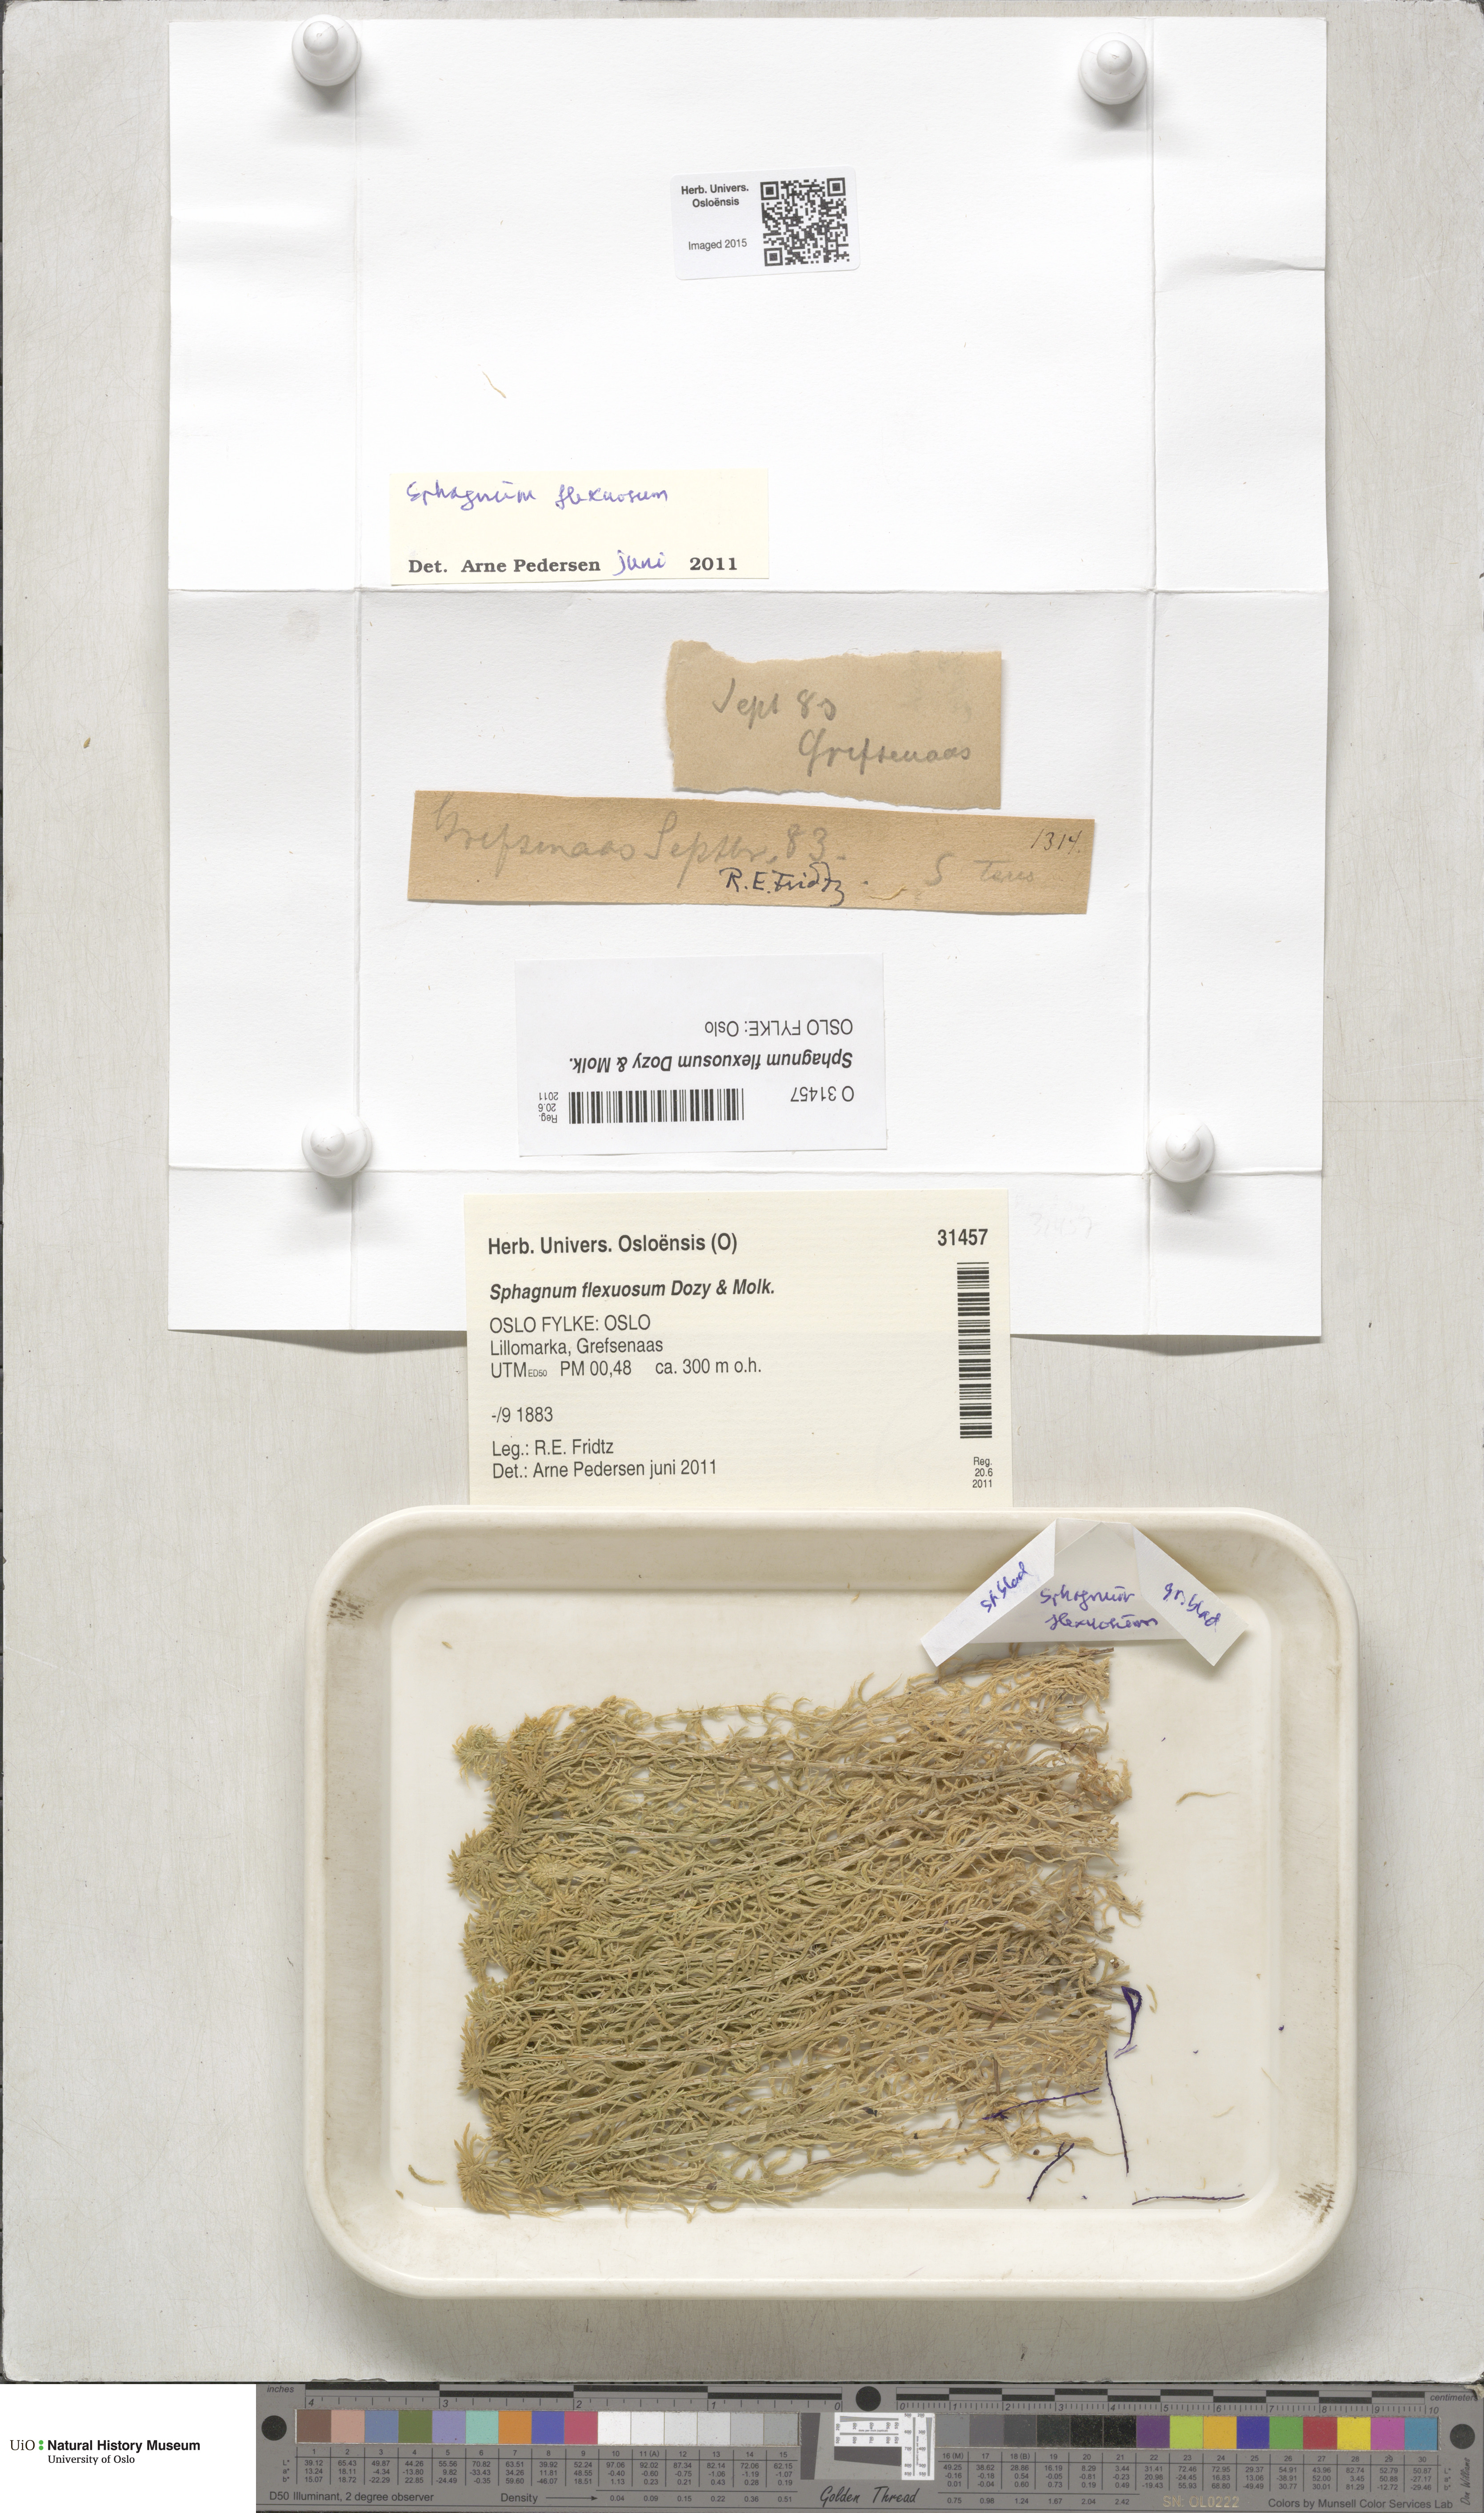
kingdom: Plantae
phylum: Bryophyta
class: Sphagnopsida
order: Sphagnales
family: Sphagnaceae
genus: Sphagnum
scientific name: Sphagnum flexuosum
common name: Flexible peat moss
